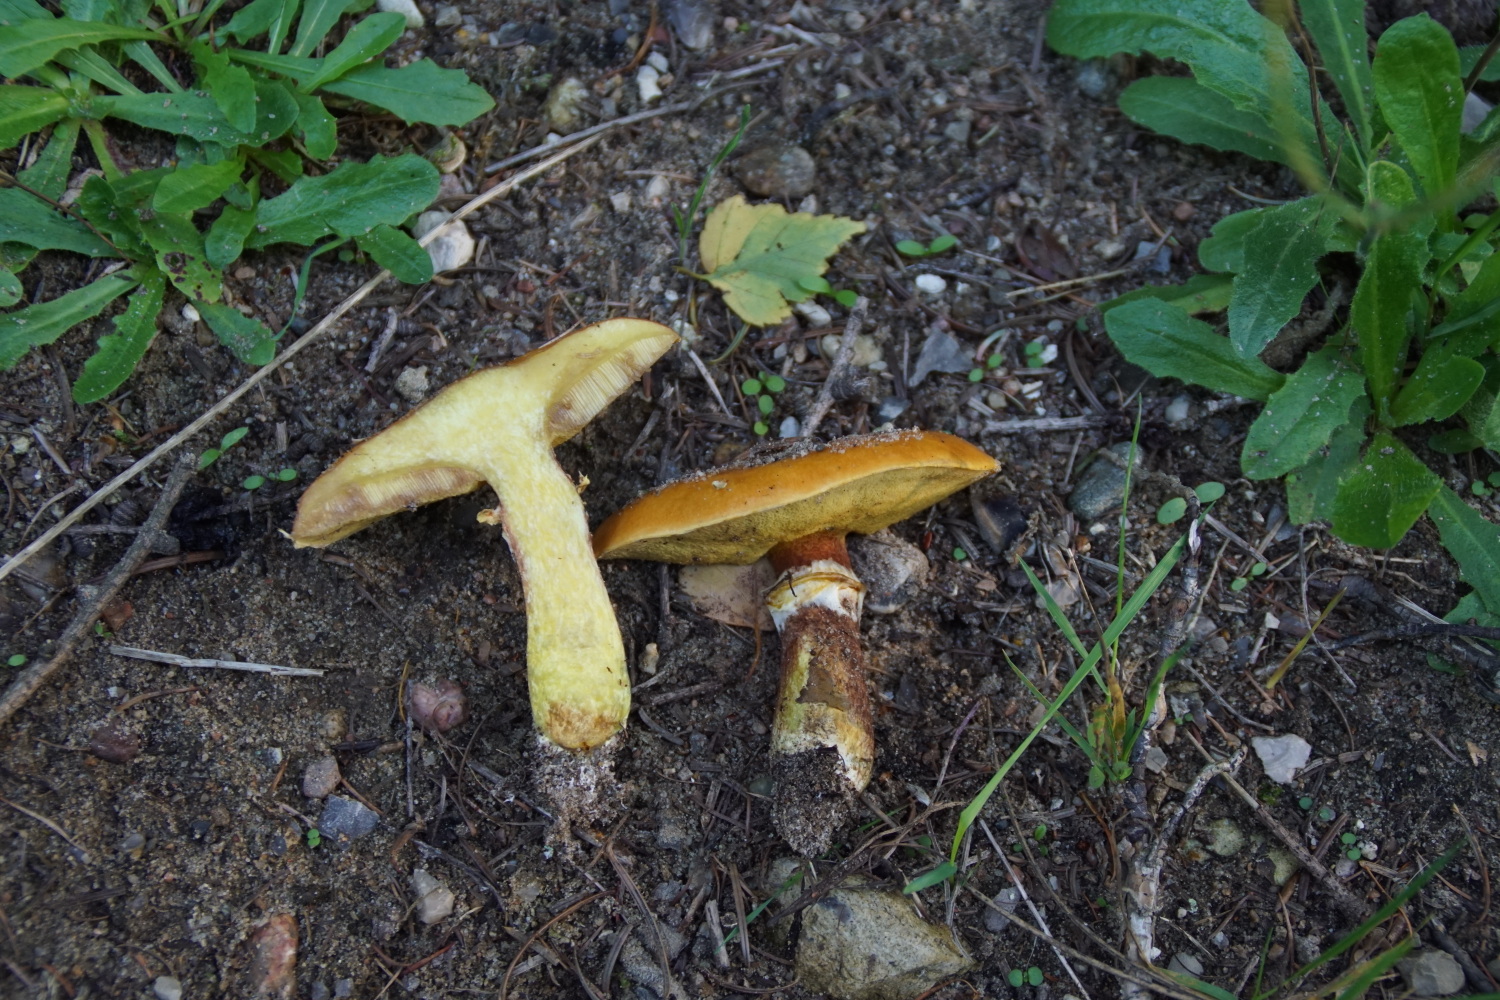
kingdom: Fungi
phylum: Basidiomycota
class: Agaricomycetes
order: Boletales
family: Suillaceae
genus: Suillus
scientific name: Suillus grevillei
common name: lærke-slimrørhat
